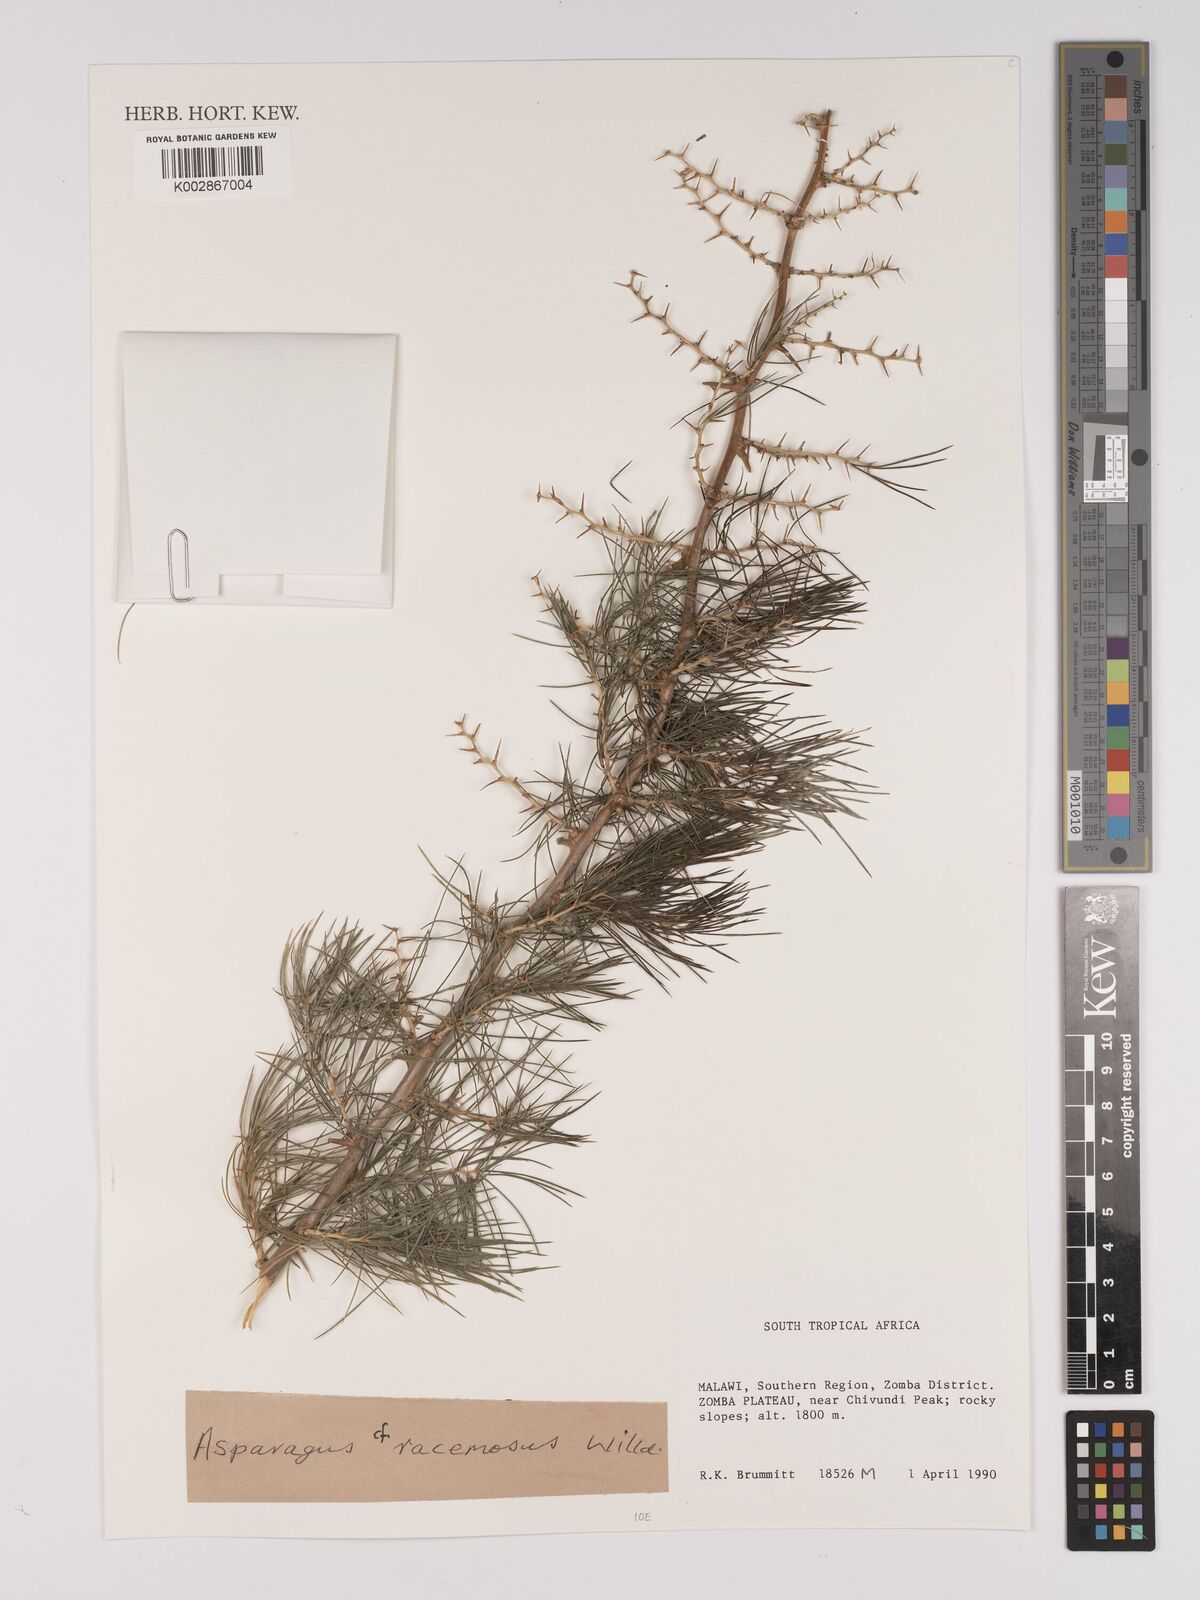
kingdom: Plantae
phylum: Tracheophyta
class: Liliopsida
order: Asparagales
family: Asparagaceae
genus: Asparagus
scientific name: Asparagus racemosus
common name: Asparagus-fern
